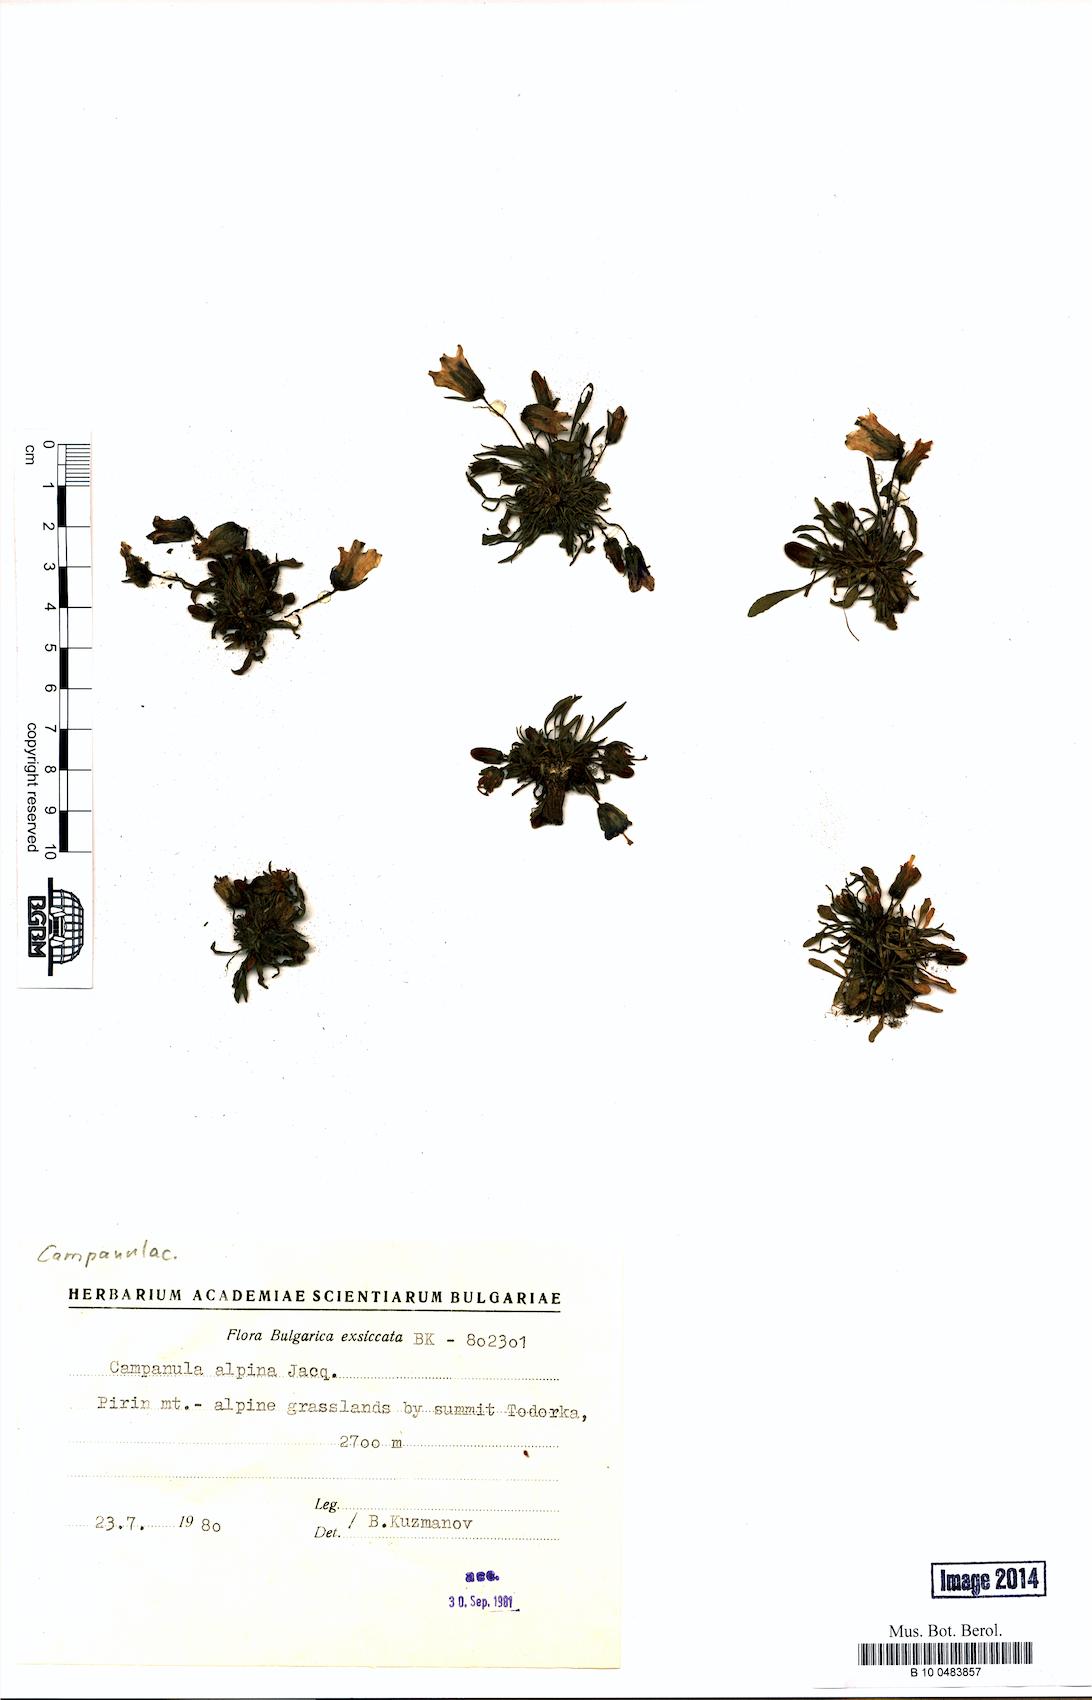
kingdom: Plantae
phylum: Tracheophyta
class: Magnoliopsida
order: Asterales
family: Campanulaceae
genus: Campanula
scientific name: Campanula alpina
